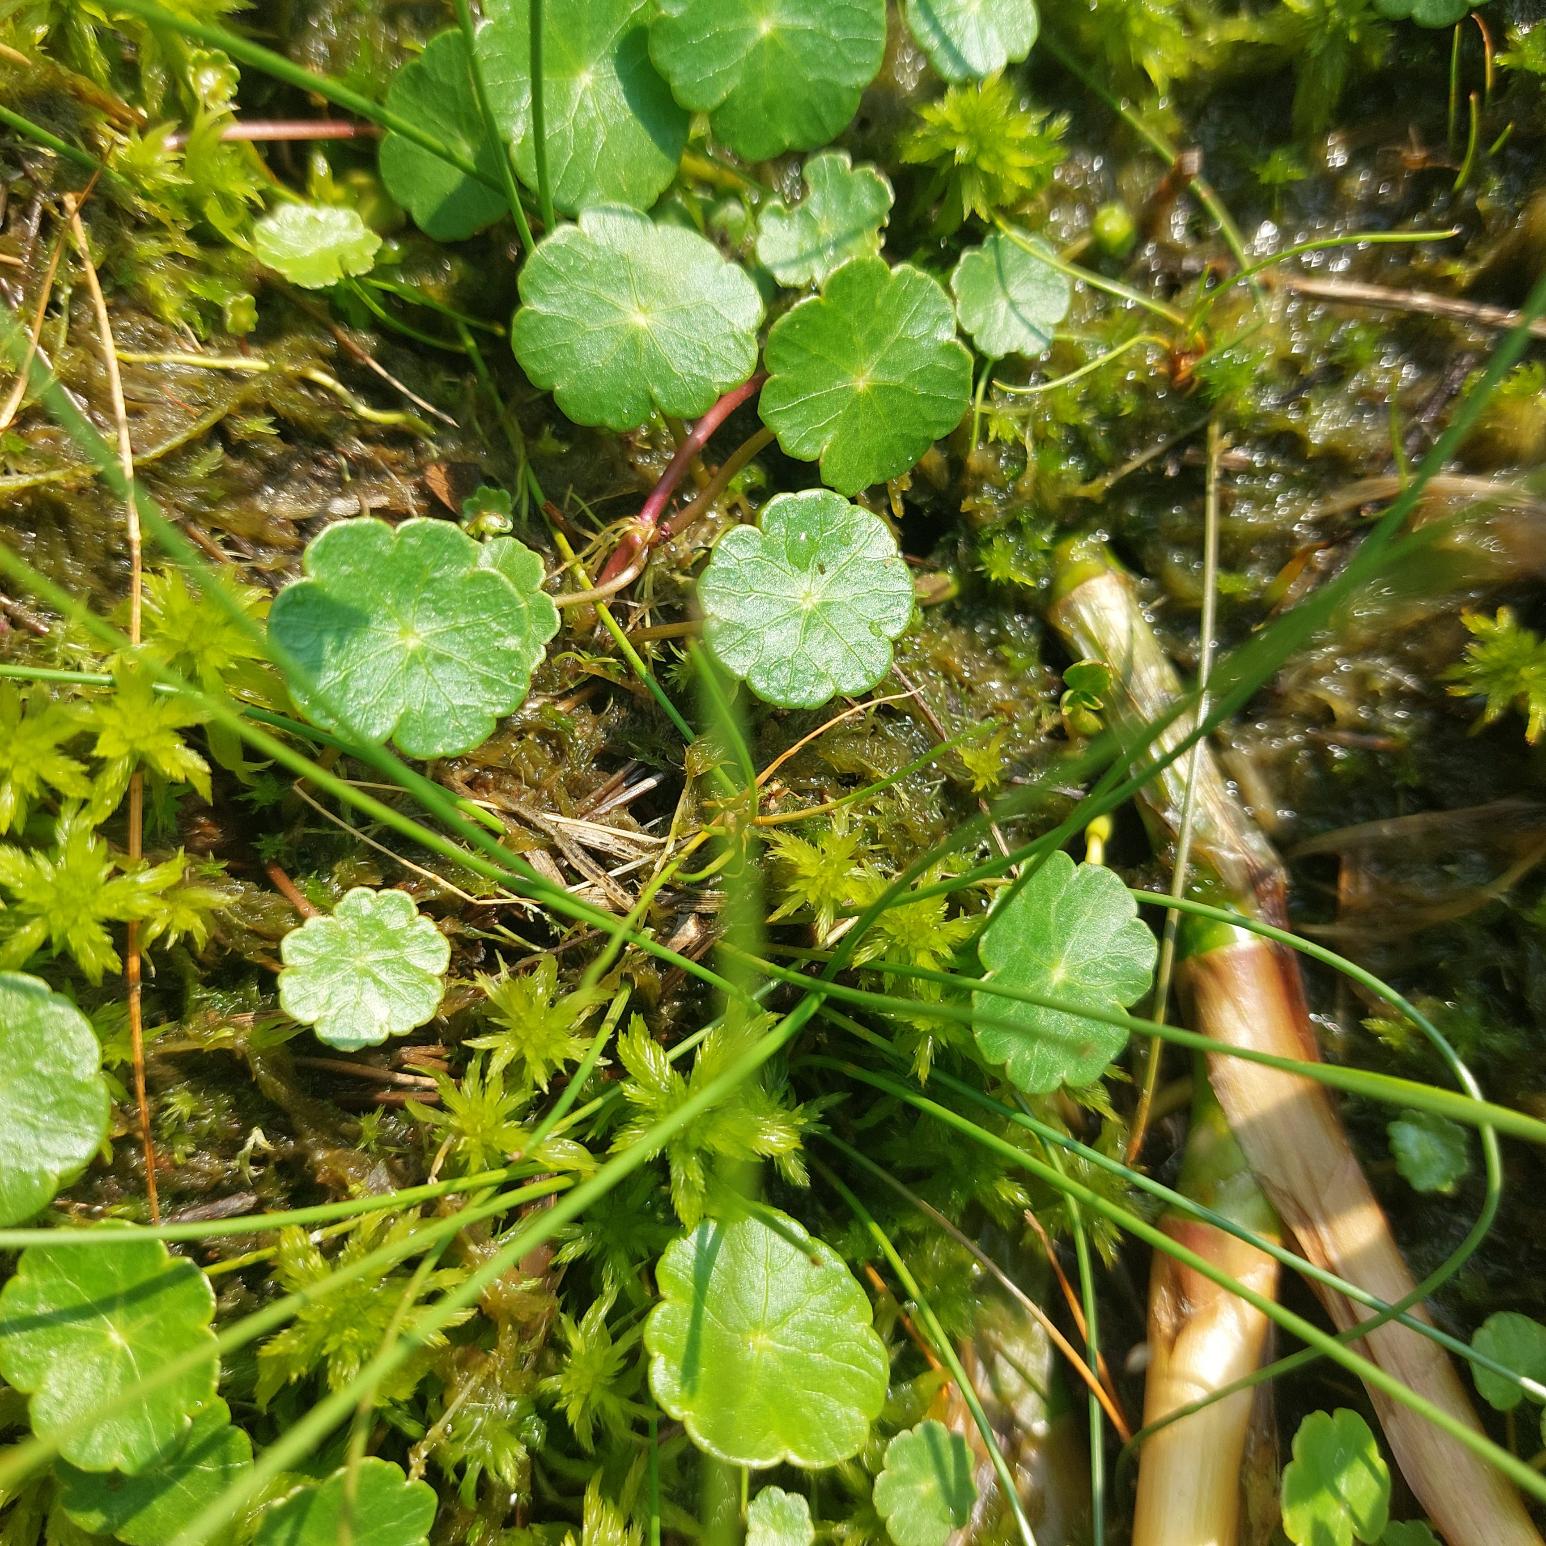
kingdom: Plantae
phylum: Tracheophyta
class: Magnoliopsida
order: Apiales
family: Araliaceae
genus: Hydrocotyle
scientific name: Hydrocotyle vulgaris
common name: Vandnavle
